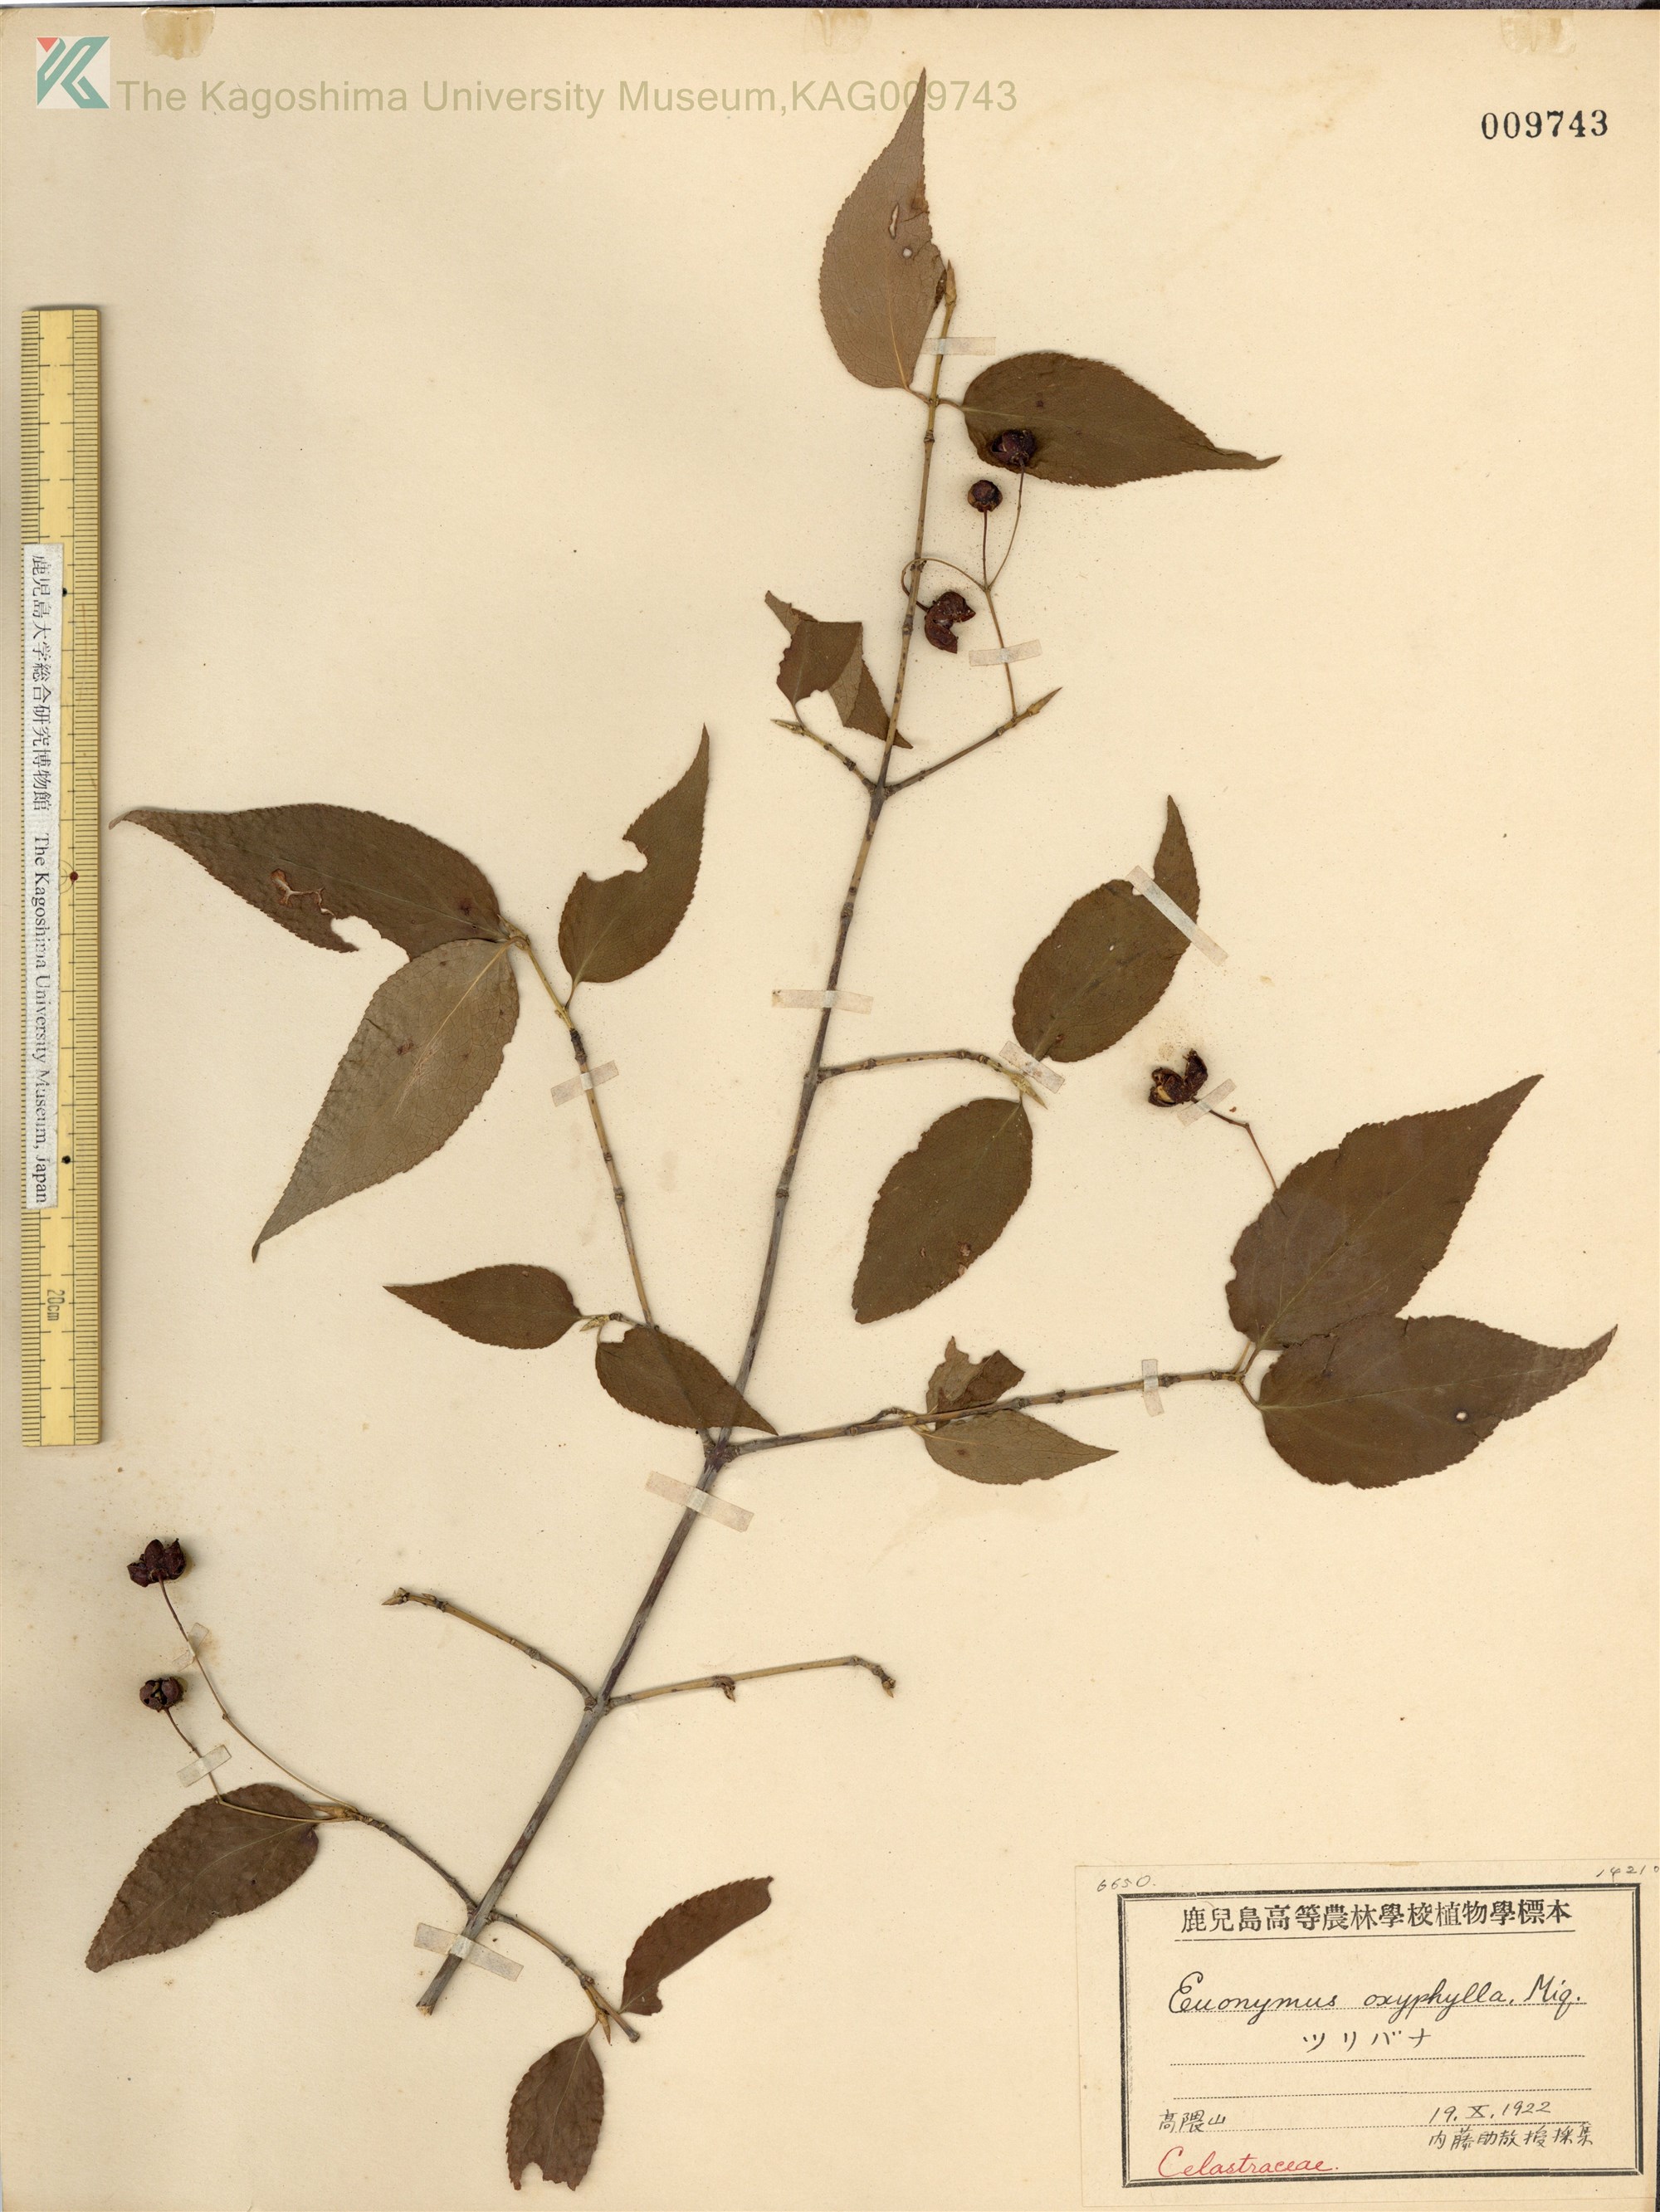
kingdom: Plantae
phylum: Tracheophyta
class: Magnoliopsida
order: Celastrales
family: Celastraceae
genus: Euonymus
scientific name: Euonymus oxyphyllus
